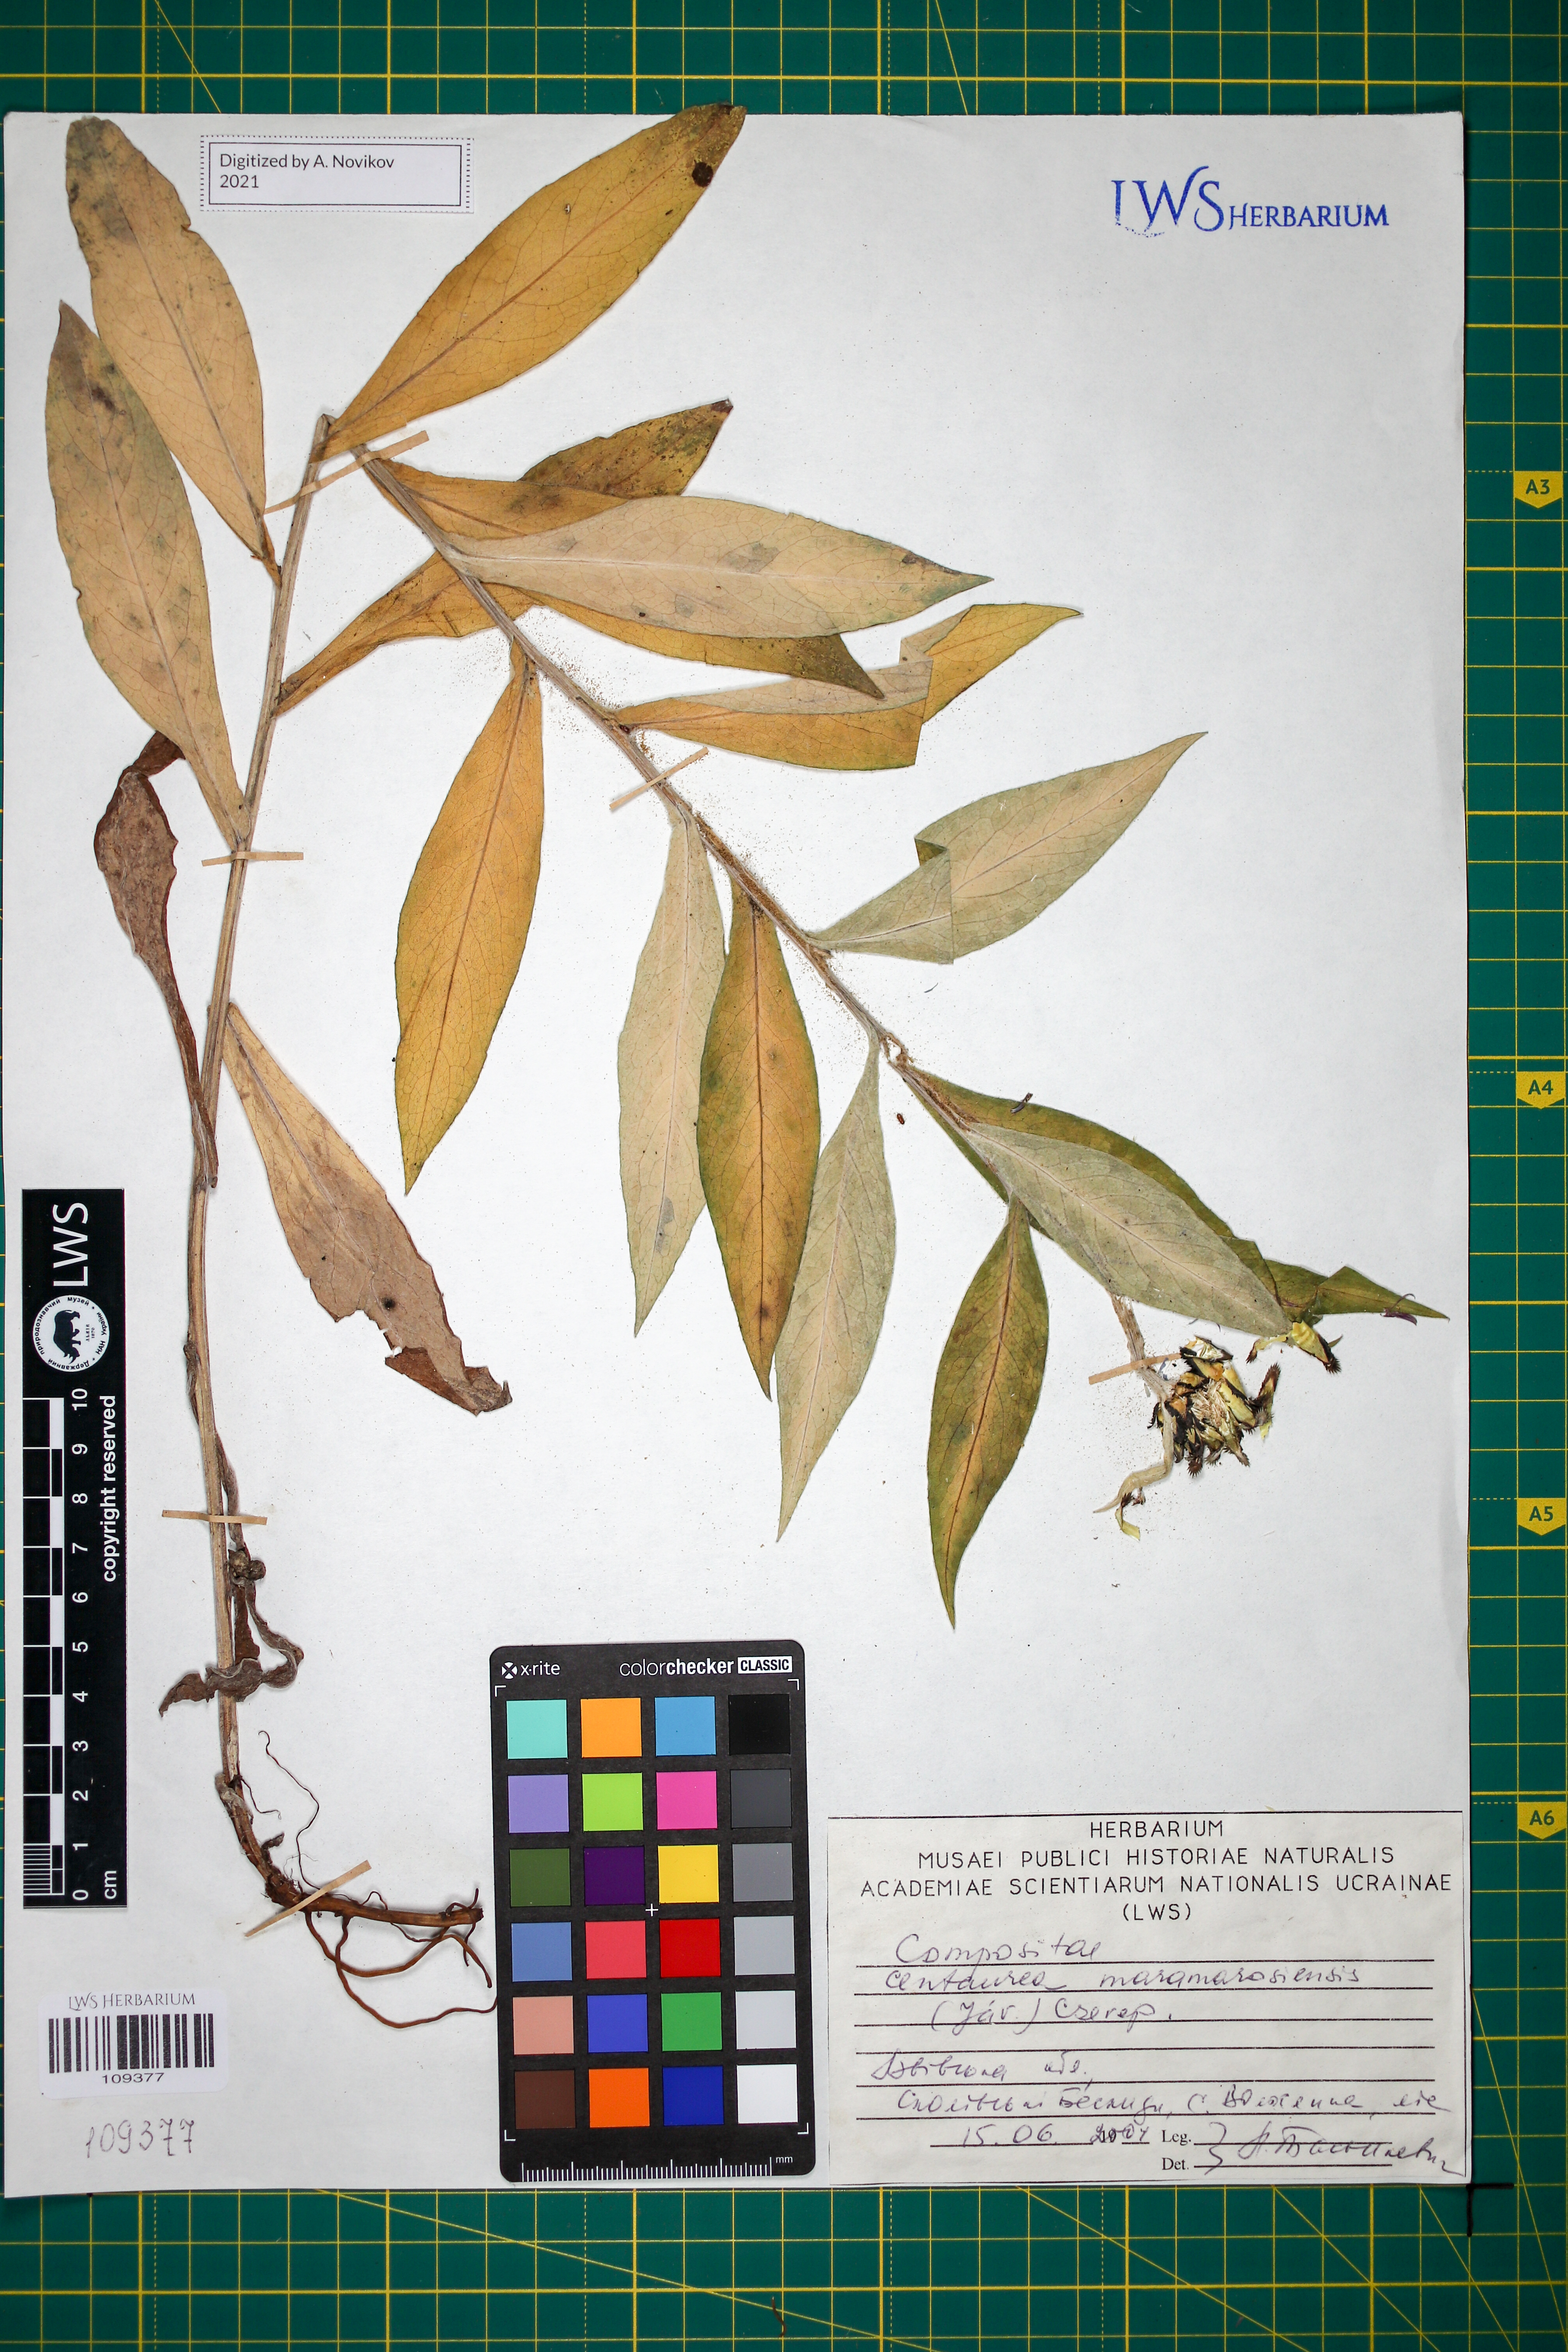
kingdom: Plantae
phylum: Tracheophyta
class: Magnoliopsida
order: Asterales
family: Asteraceae
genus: Centaurea
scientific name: Centaurea maramarosiensis
